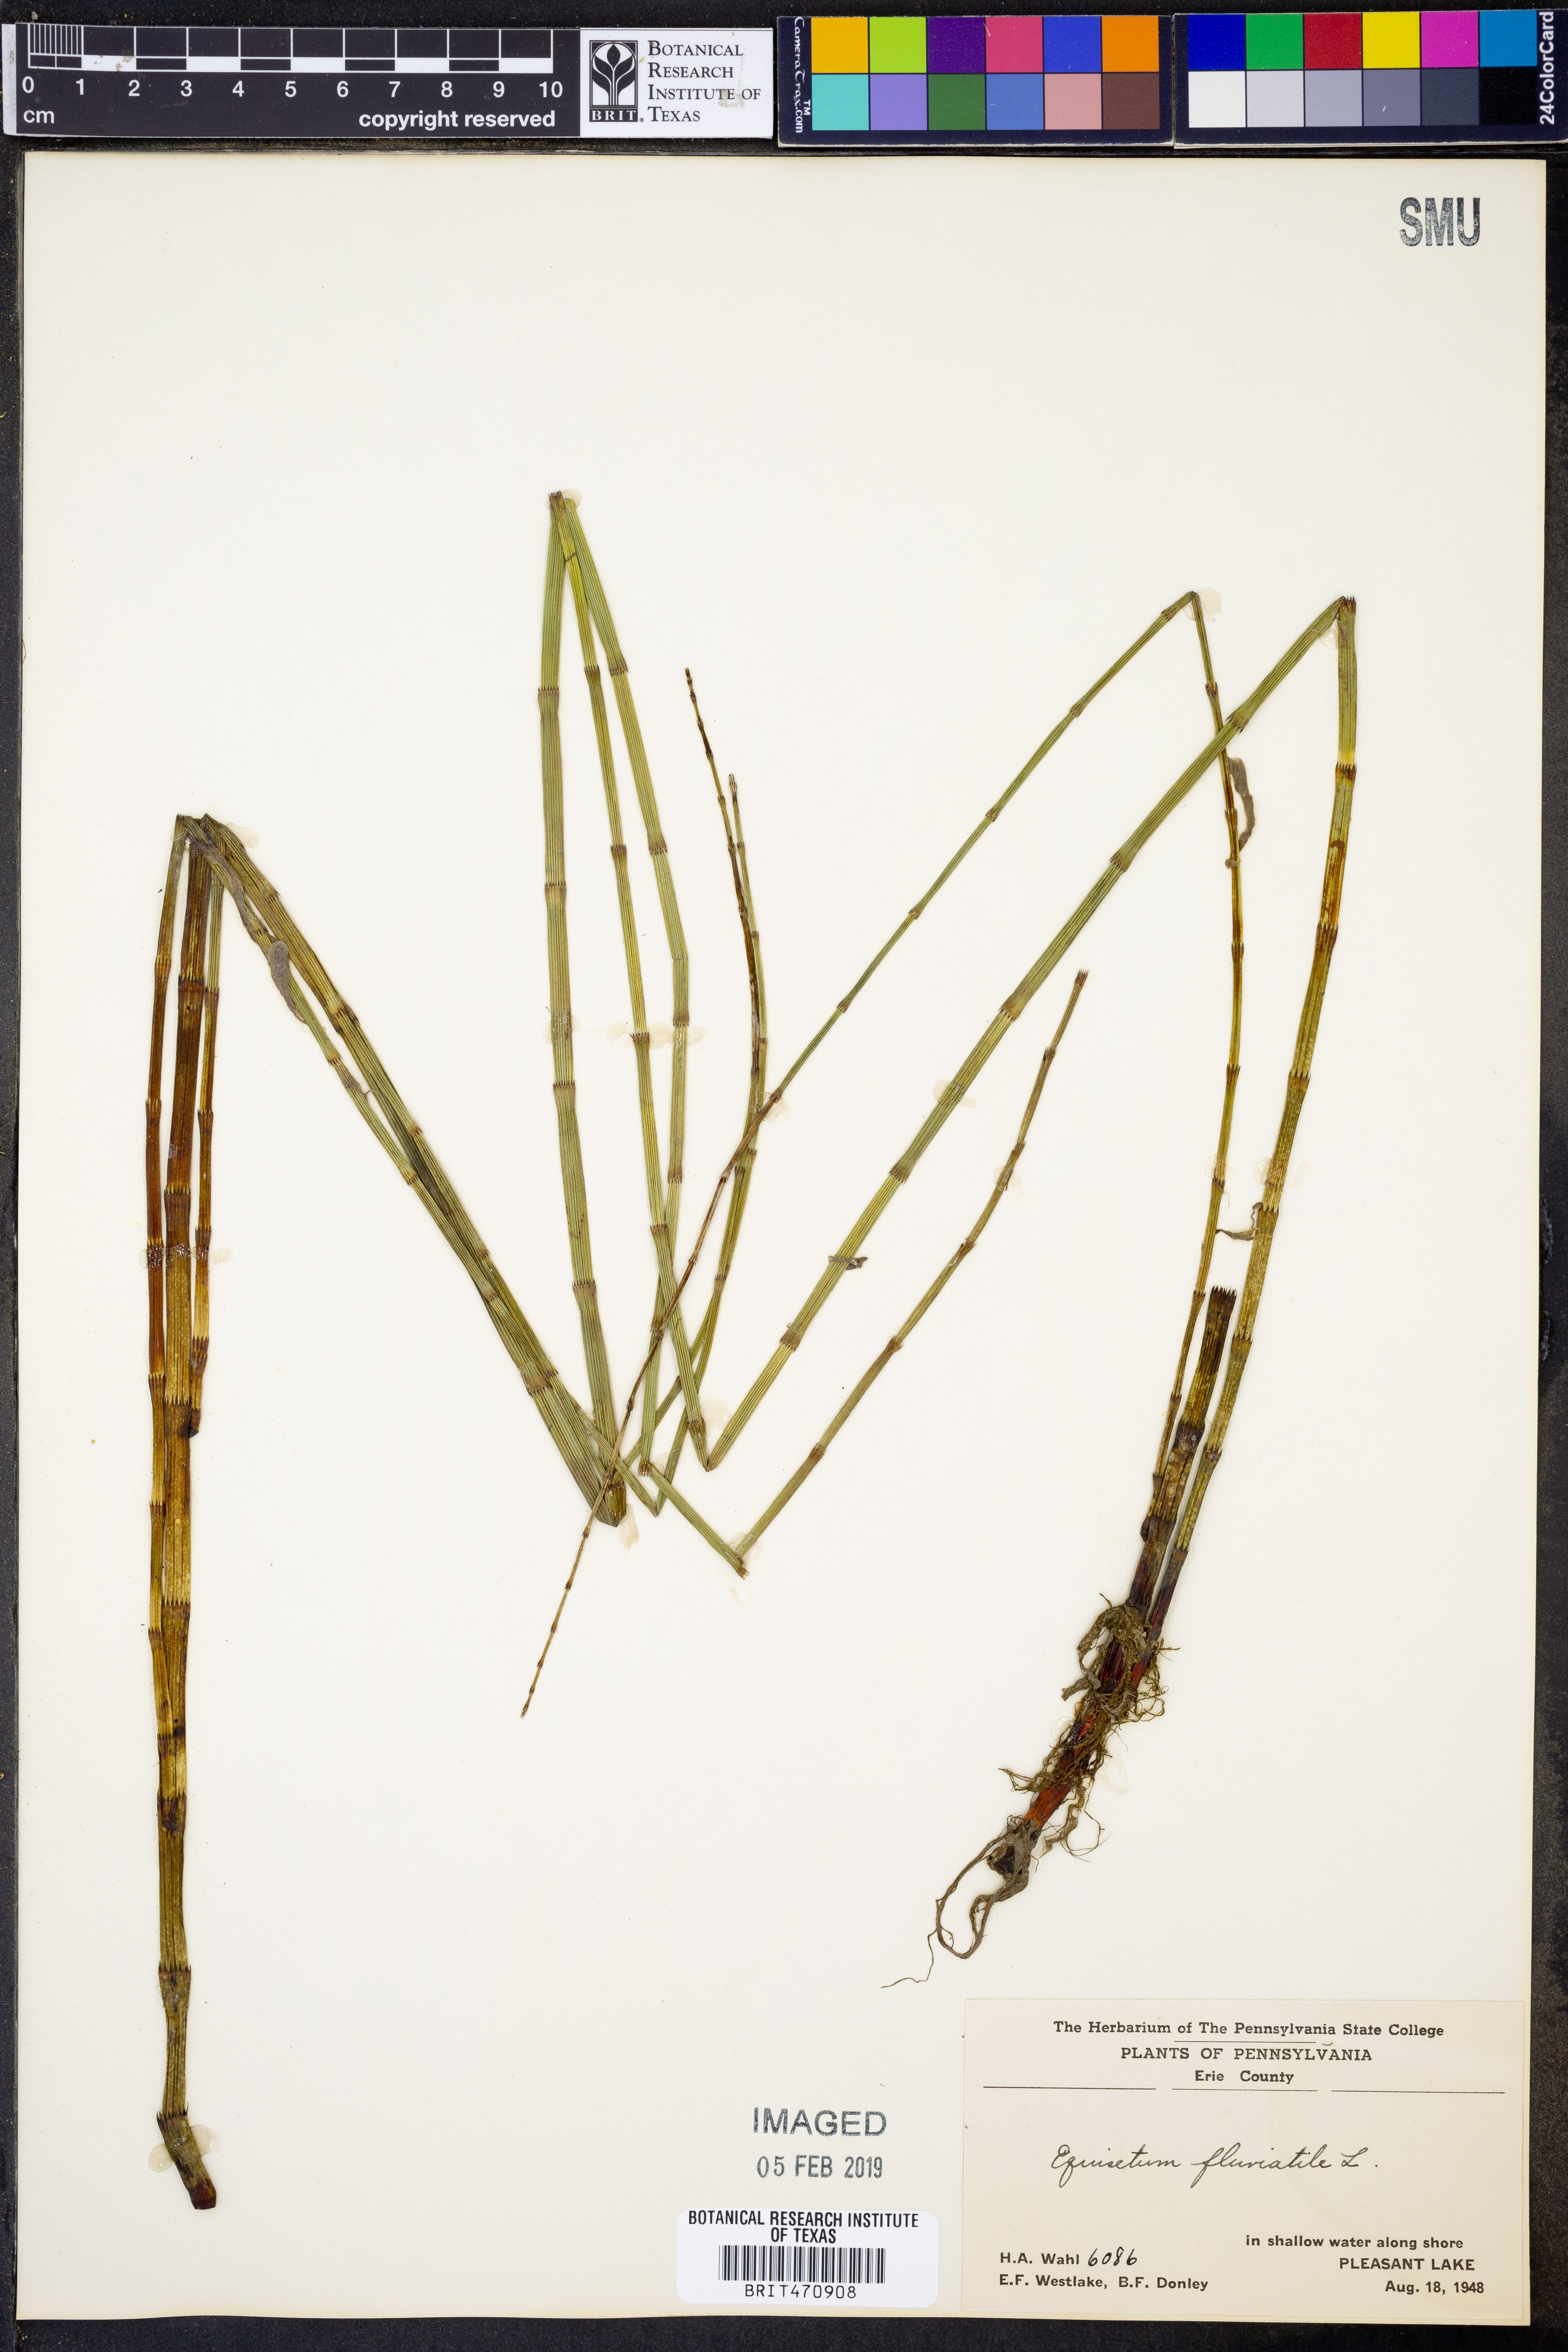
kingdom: Plantae
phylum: Tracheophyta
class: Polypodiopsida
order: Equisetales
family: Equisetaceae
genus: Equisetum
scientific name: Equisetum fluviatile
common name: Water horsetail
